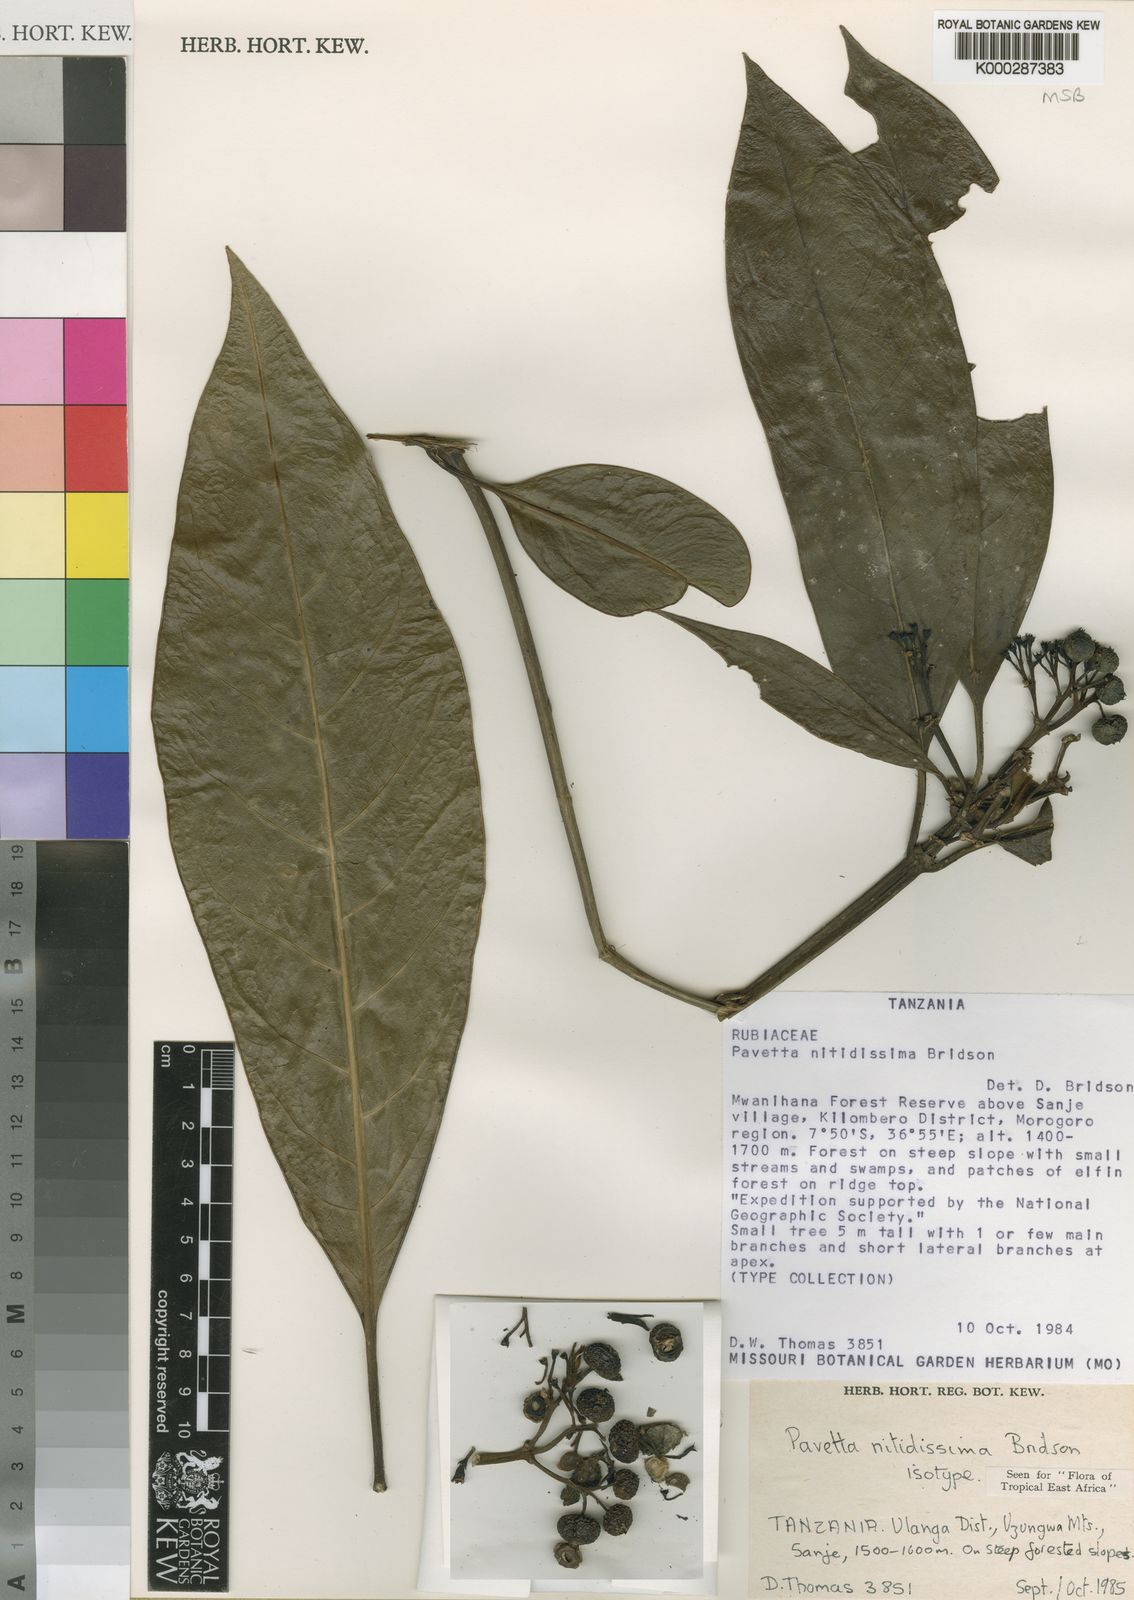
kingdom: Plantae
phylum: Tracheophyta
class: Magnoliopsida
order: Gentianales
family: Rubiaceae
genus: Pavetta
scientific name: Pavetta nitidissima
